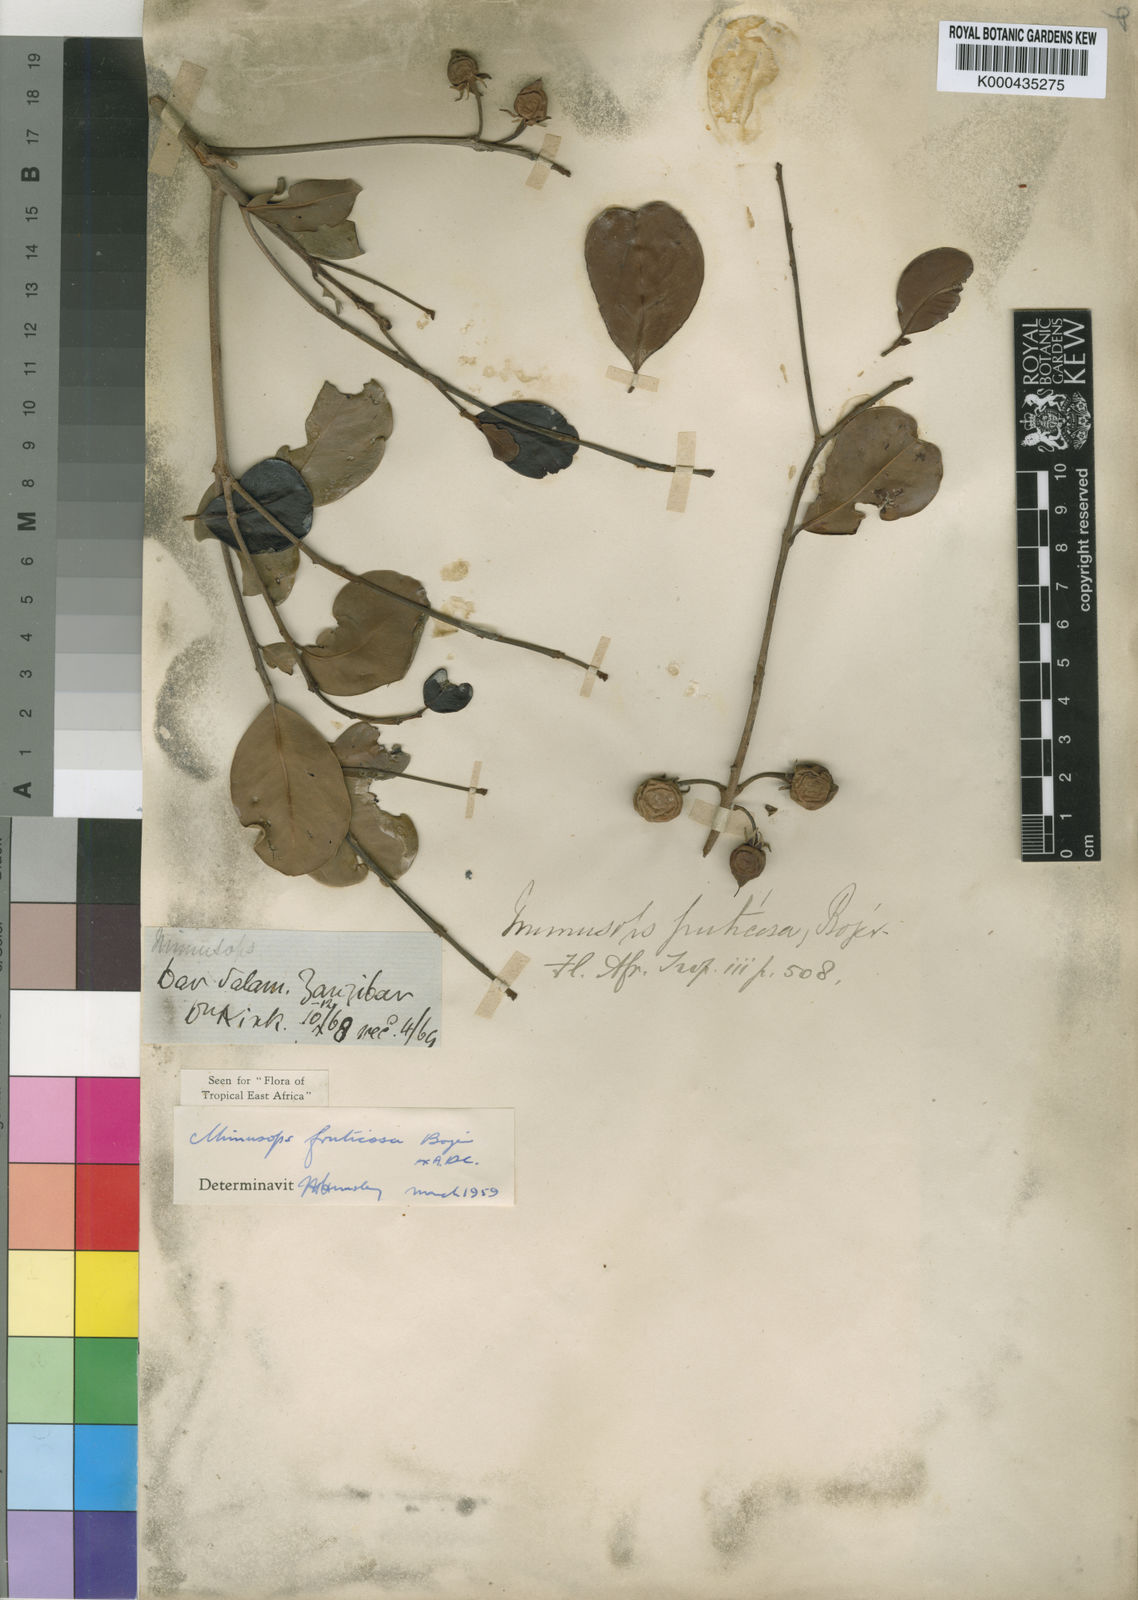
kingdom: Plantae
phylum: Tracheophyta
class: Magnoliopsida
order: Ericales
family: Sapotaceae
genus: Mimusops
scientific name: Mimusops
